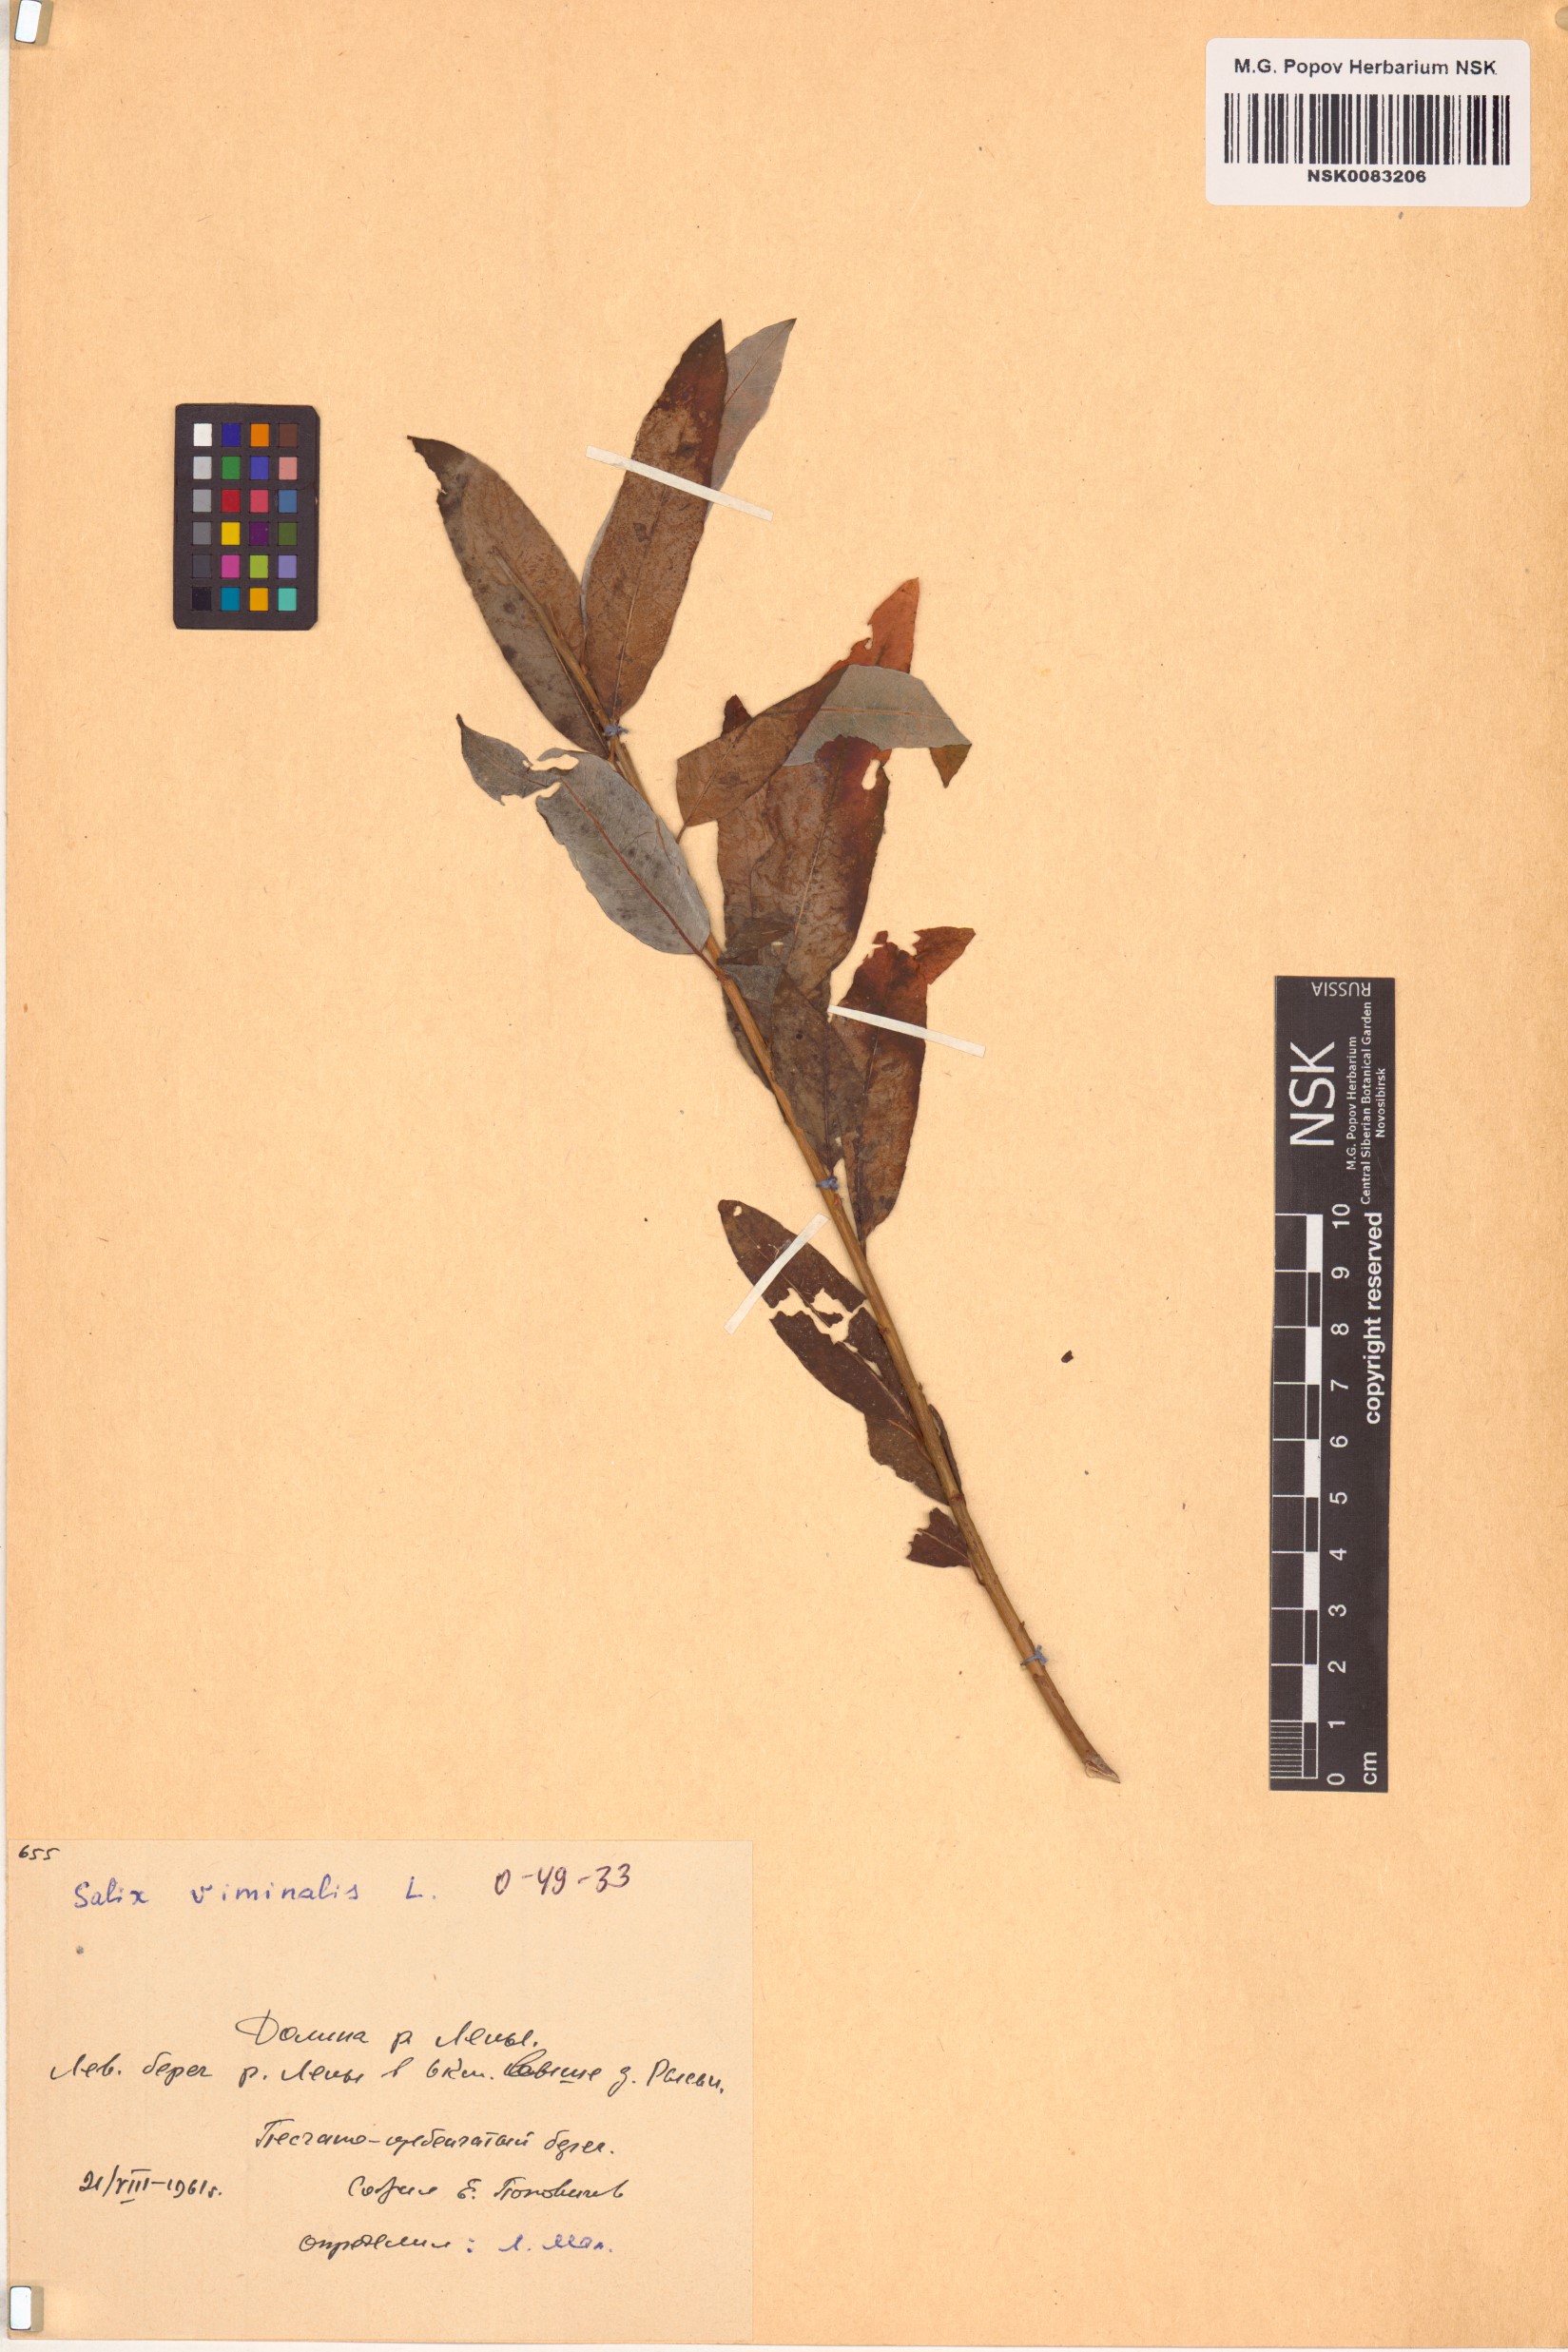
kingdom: Plantae
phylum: Tracheophyta
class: Magnoliopsida
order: Malpighiales
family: Salicaceae
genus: Salix
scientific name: Salix viminalis
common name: Osier
